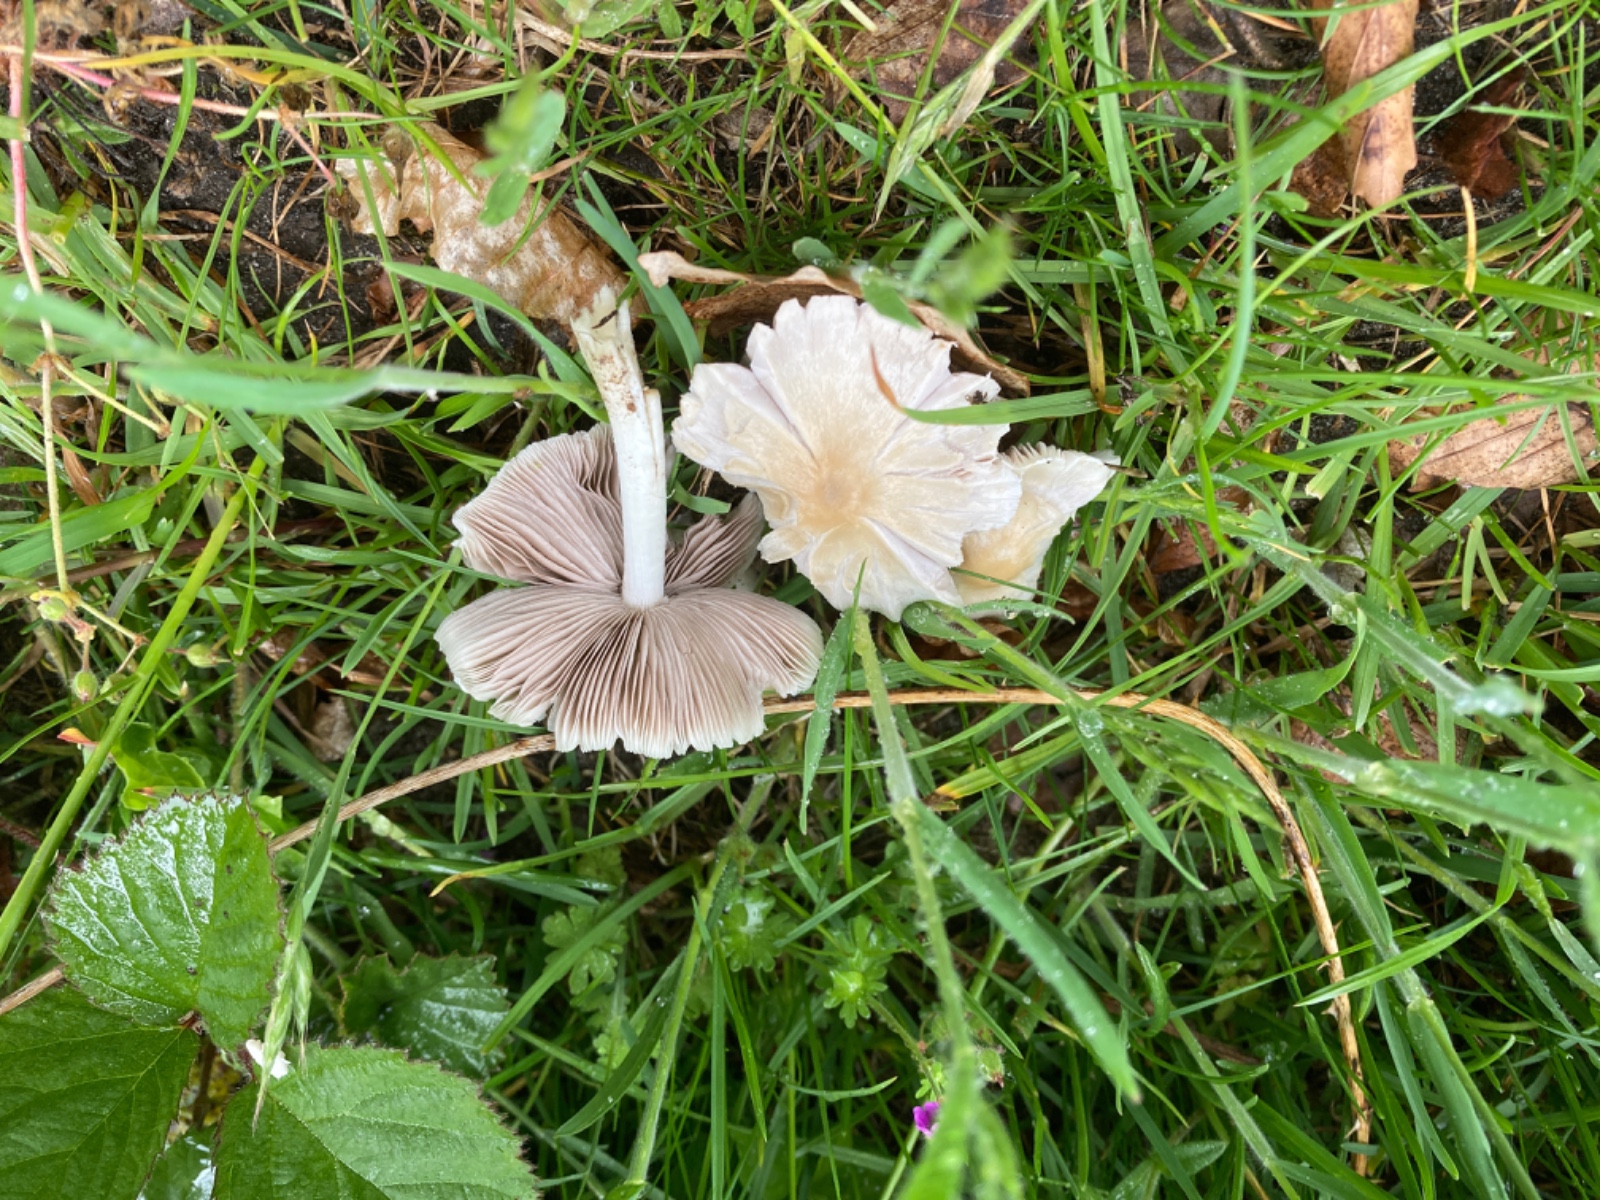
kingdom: Fungi
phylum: Basidiomycota
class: Agaricomycetes
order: Agaricales
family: Psathyrellaceae
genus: Candolleomyces
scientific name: Candolleomyces candolleanus
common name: Candolles mørkhat
